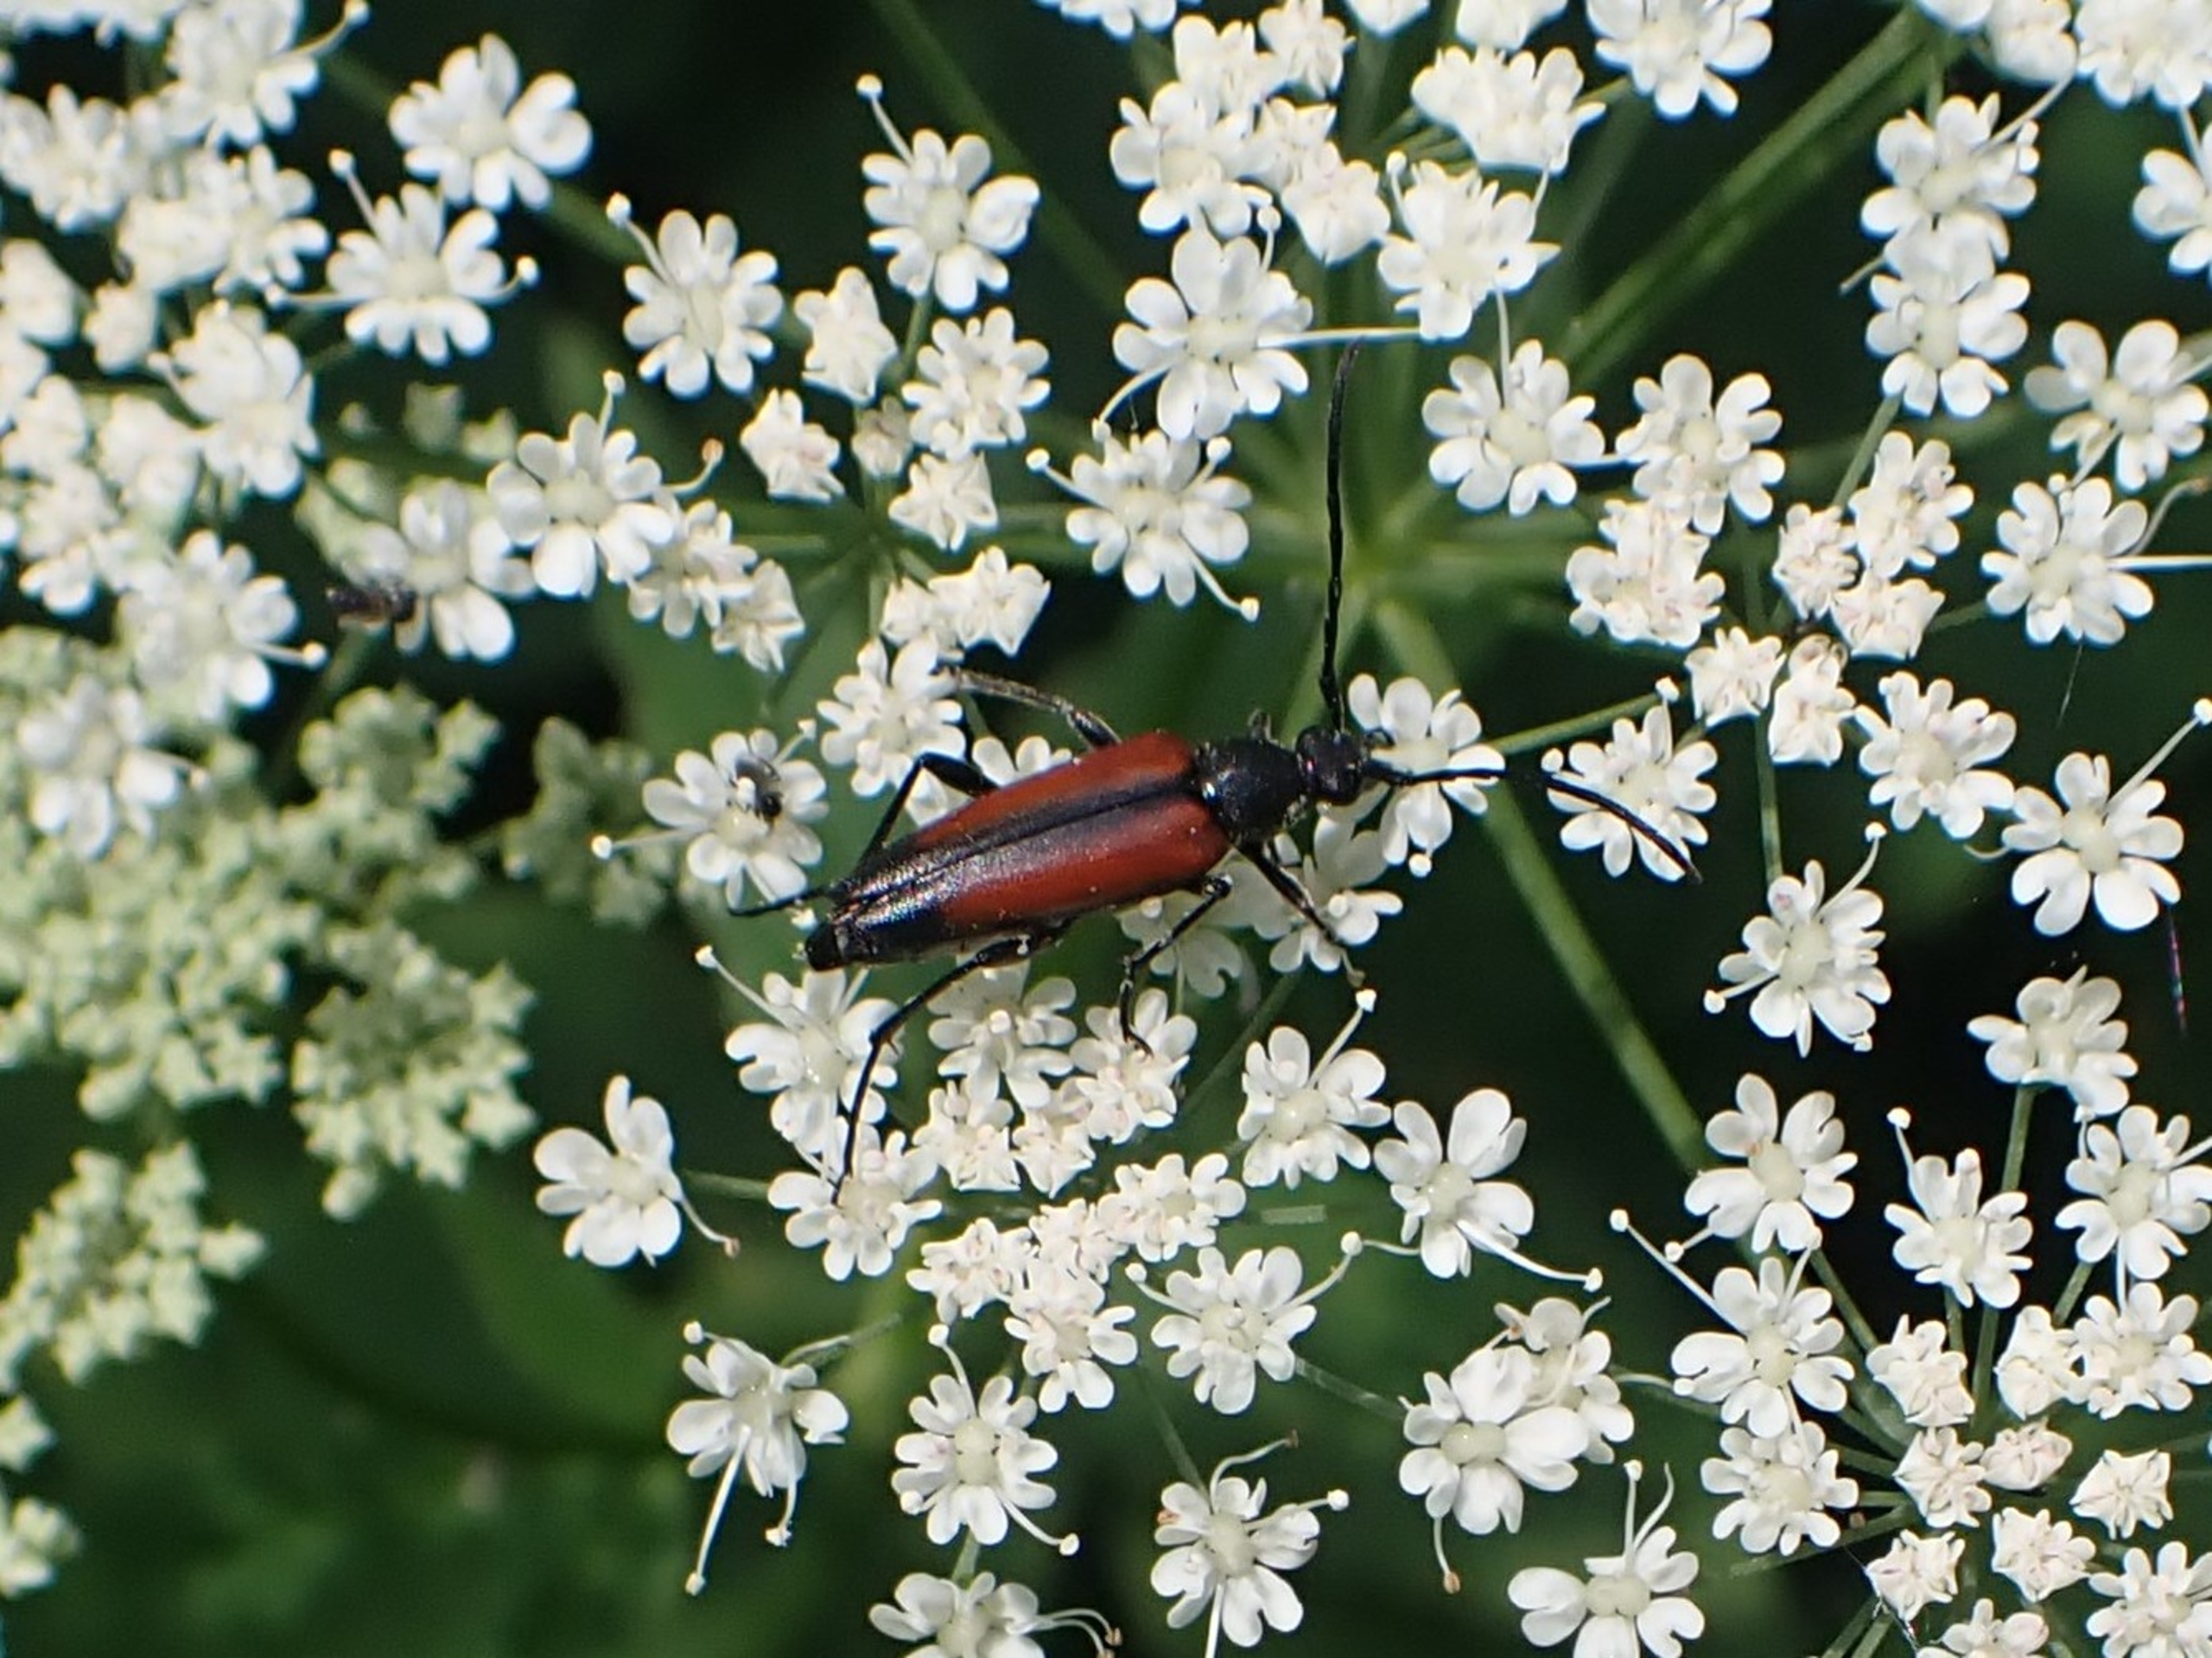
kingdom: Animalia
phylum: Arthropoda
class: Insecta
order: Coleoptera
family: Cerambycidae
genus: Stenurella
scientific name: Stenurella melanura
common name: Sortsømmet blomsterbuk
